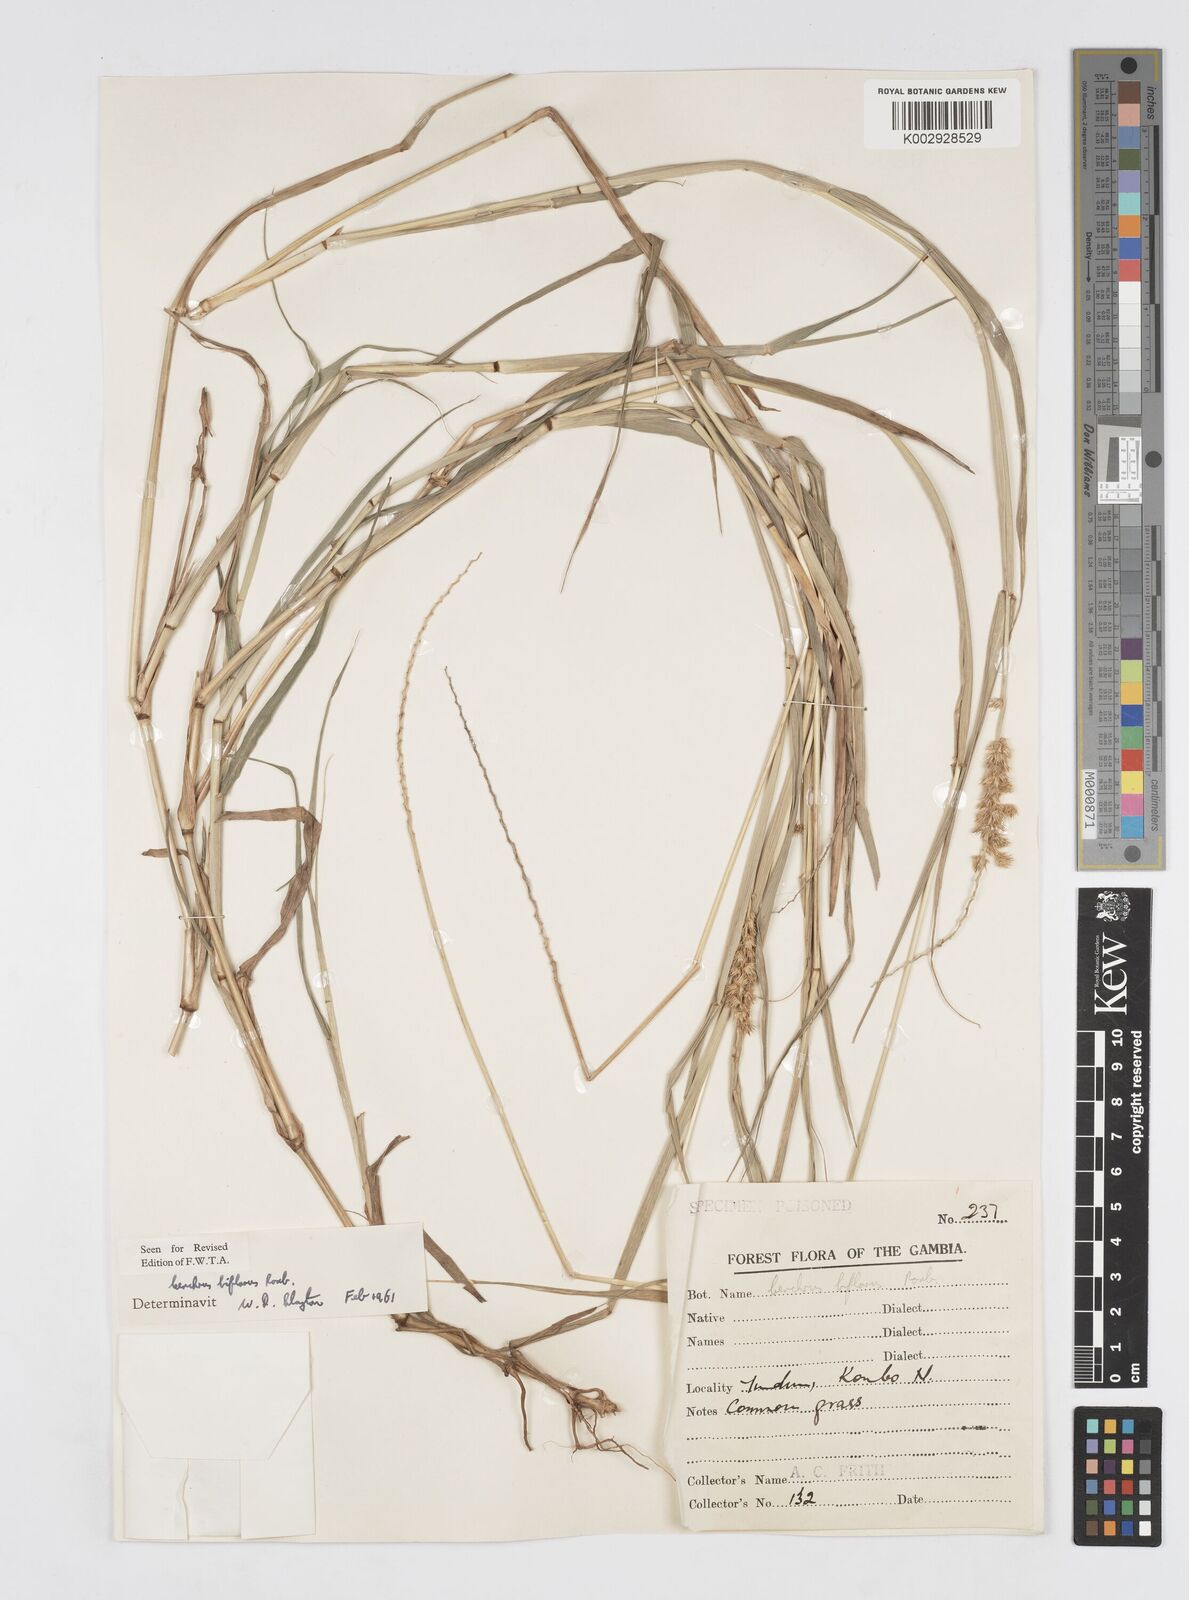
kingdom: Plantae
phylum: Tracheophyta
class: Liliopsida
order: Poales
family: Poaceae
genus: Cenchrus
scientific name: Cenchrus biflorus
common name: Indian sandbur
